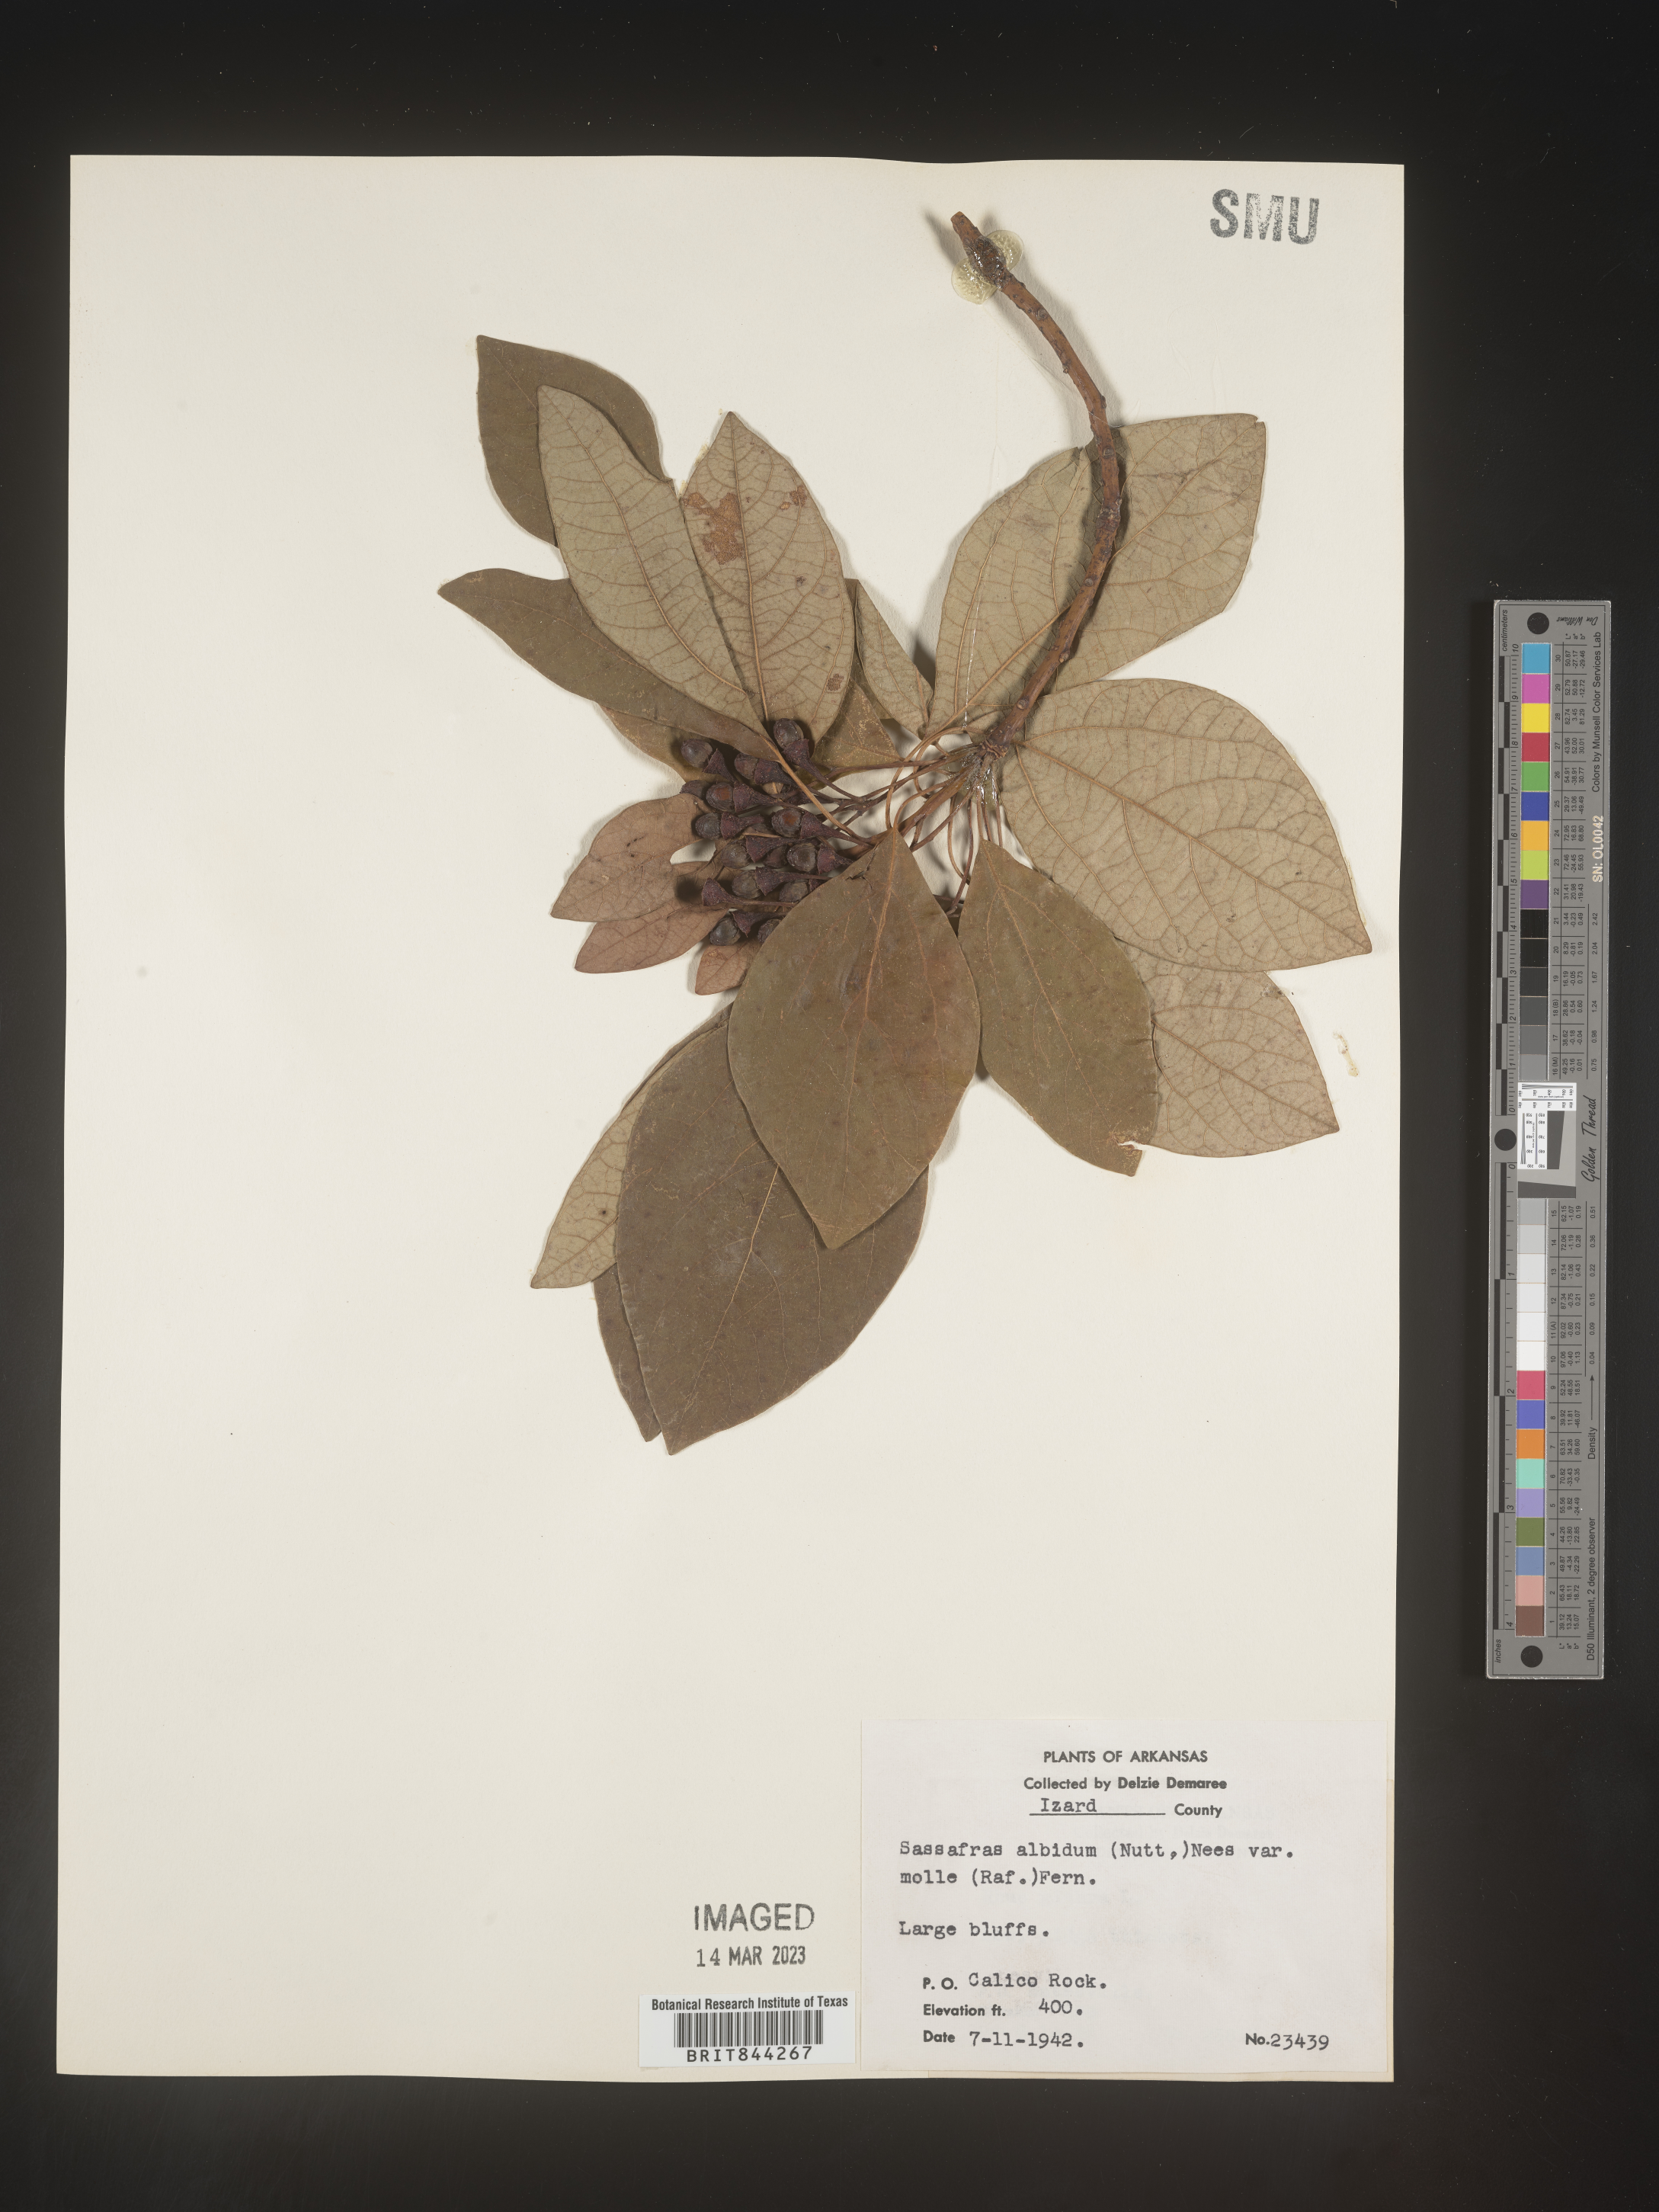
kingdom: Plantae
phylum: Tracheophyta
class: Magnoliopsida
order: Laurales
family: Lauraceae
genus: Sassafras
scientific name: Sassafras albidum
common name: Sassafras
